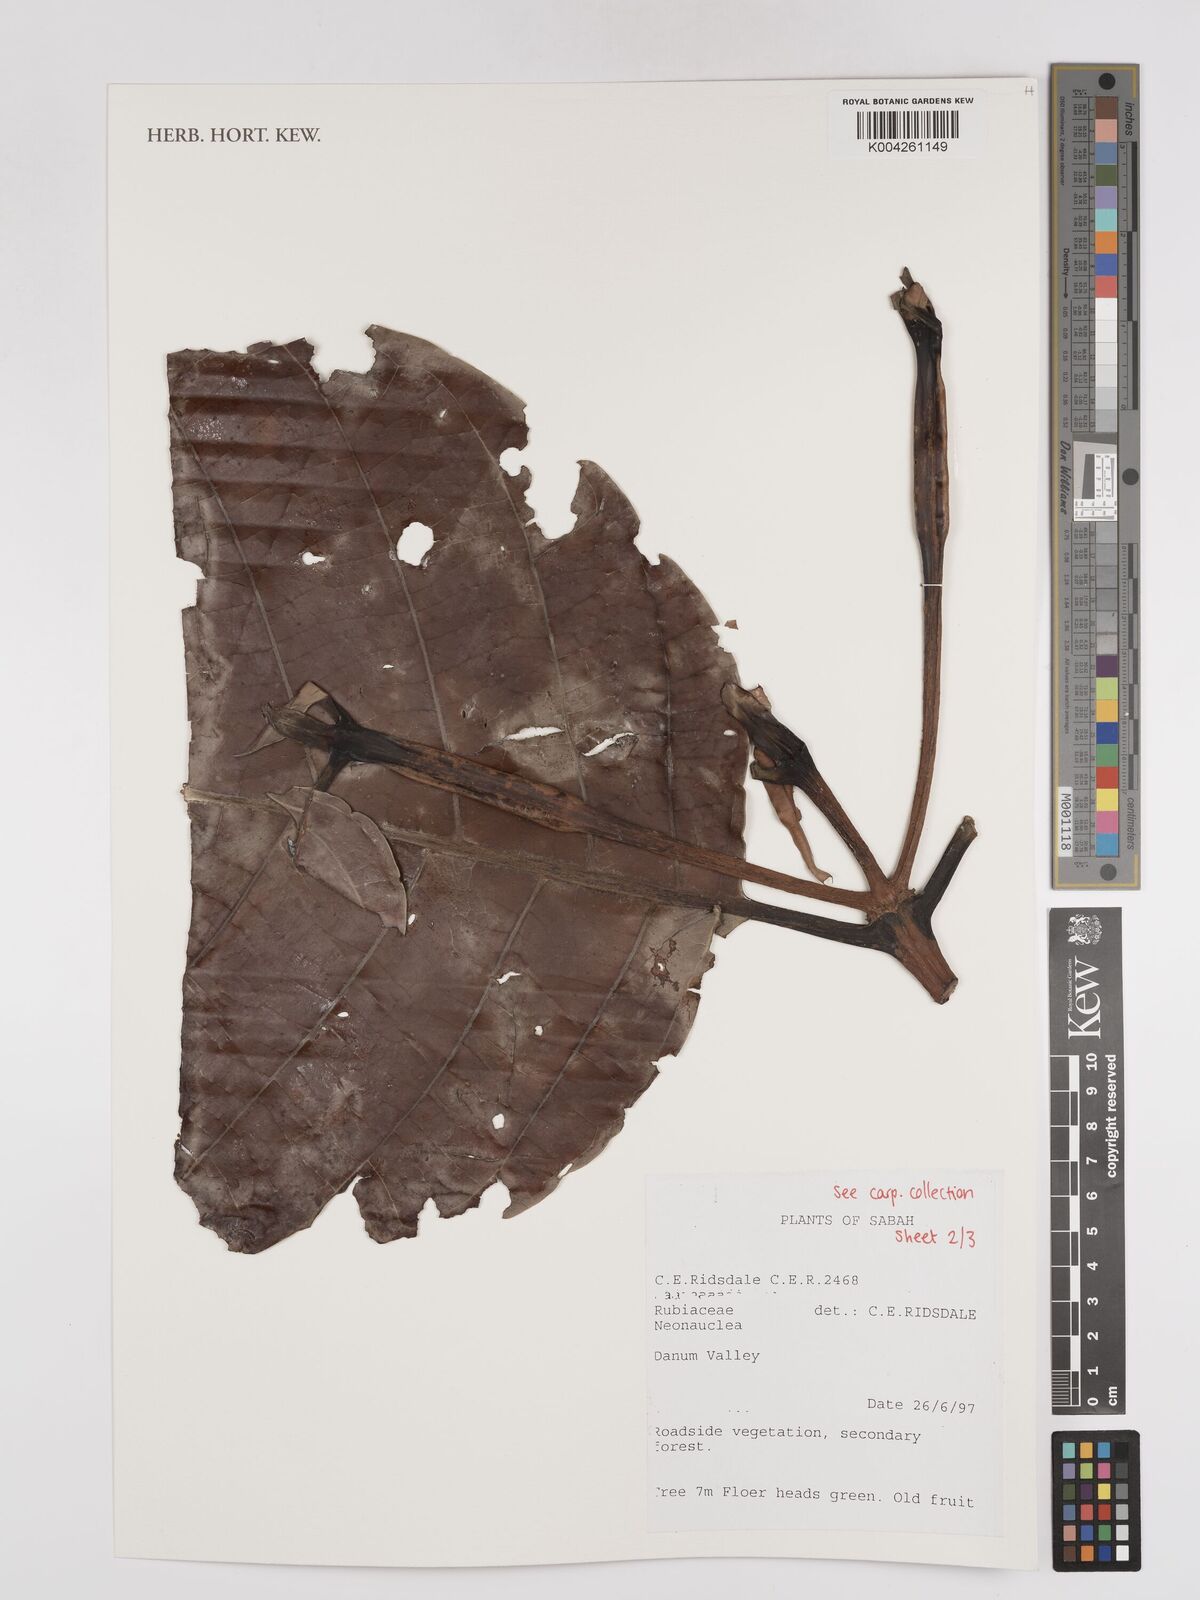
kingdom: Plantae
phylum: Tracheophyta
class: Magnoliopsida
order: Gentianales
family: Rubiaceae
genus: Neonauclea
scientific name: Neonauclea
